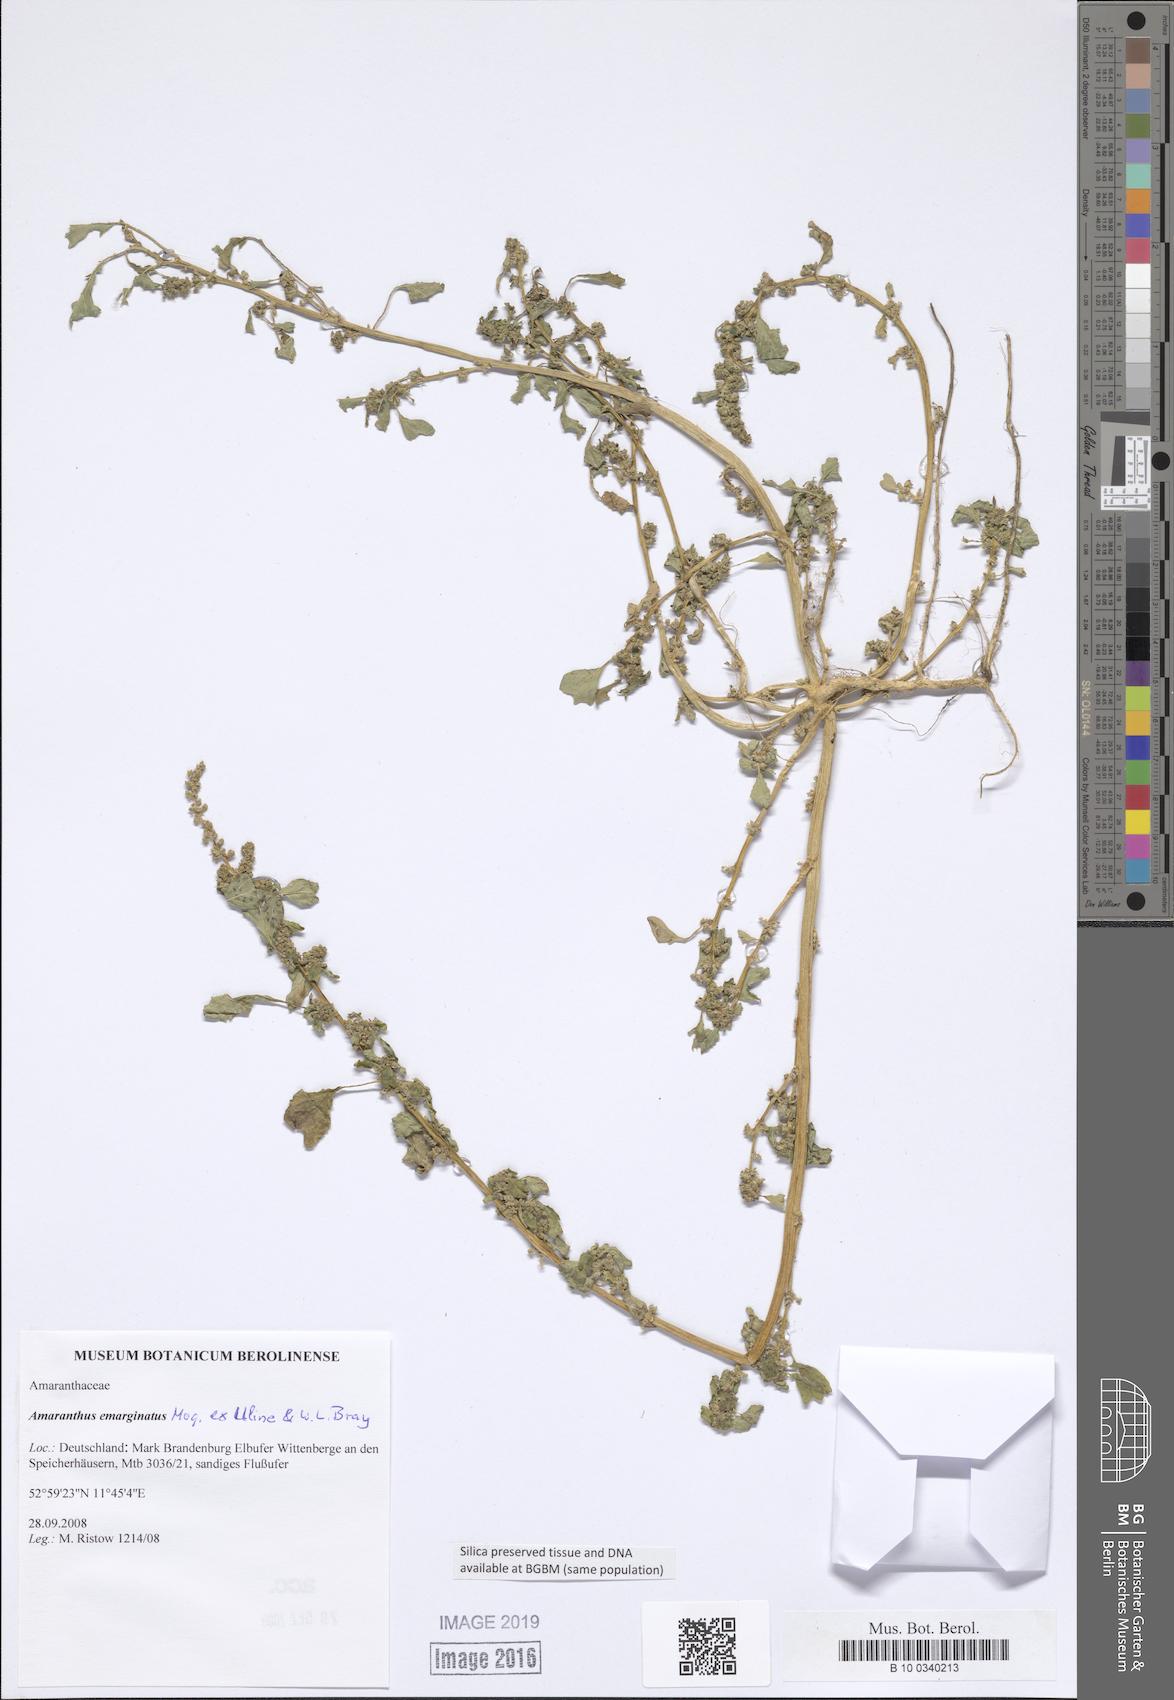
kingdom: Plantae
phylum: Tracheophyta
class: Magnoliopsida
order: Caryophyllales
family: Amaranthaceae
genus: Amaranthus
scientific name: Amaranthus emarginatus
